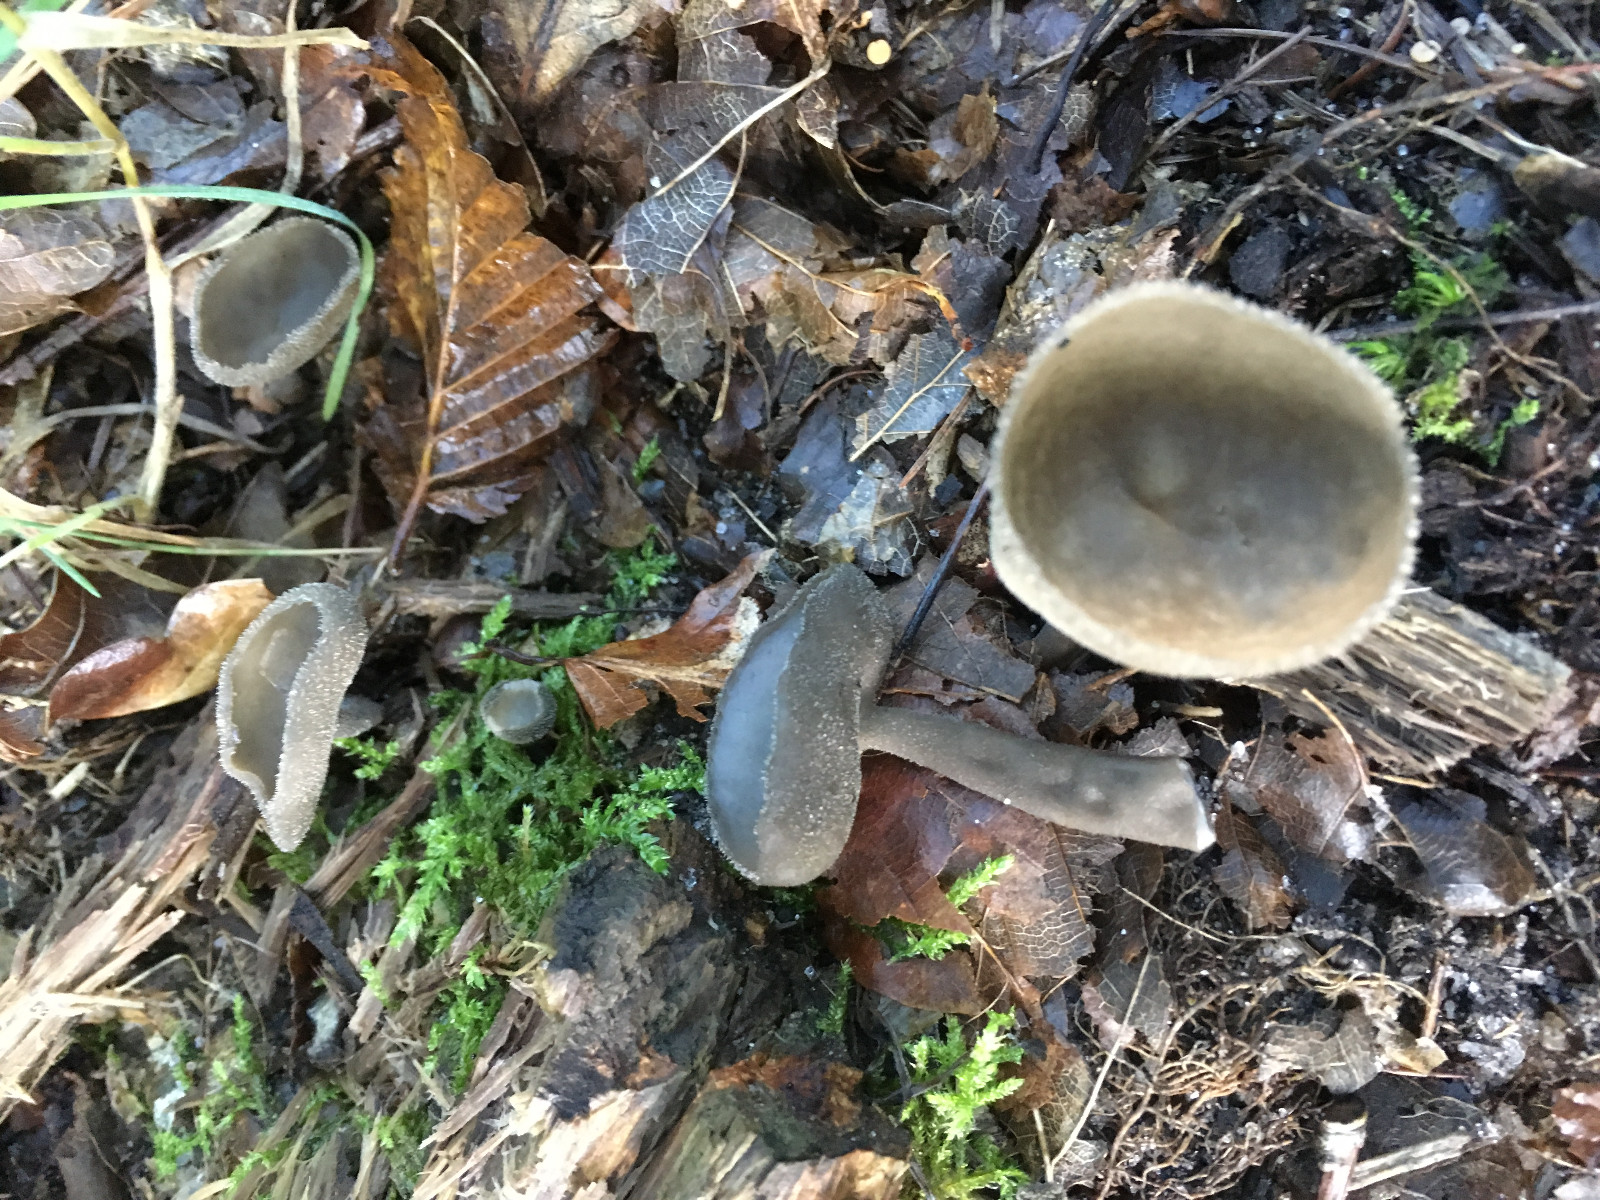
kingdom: Fungi
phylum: Ascomycota
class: Pezizomycetes
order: Pezizales
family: Helvellaceae
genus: Helvella
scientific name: Helvella
